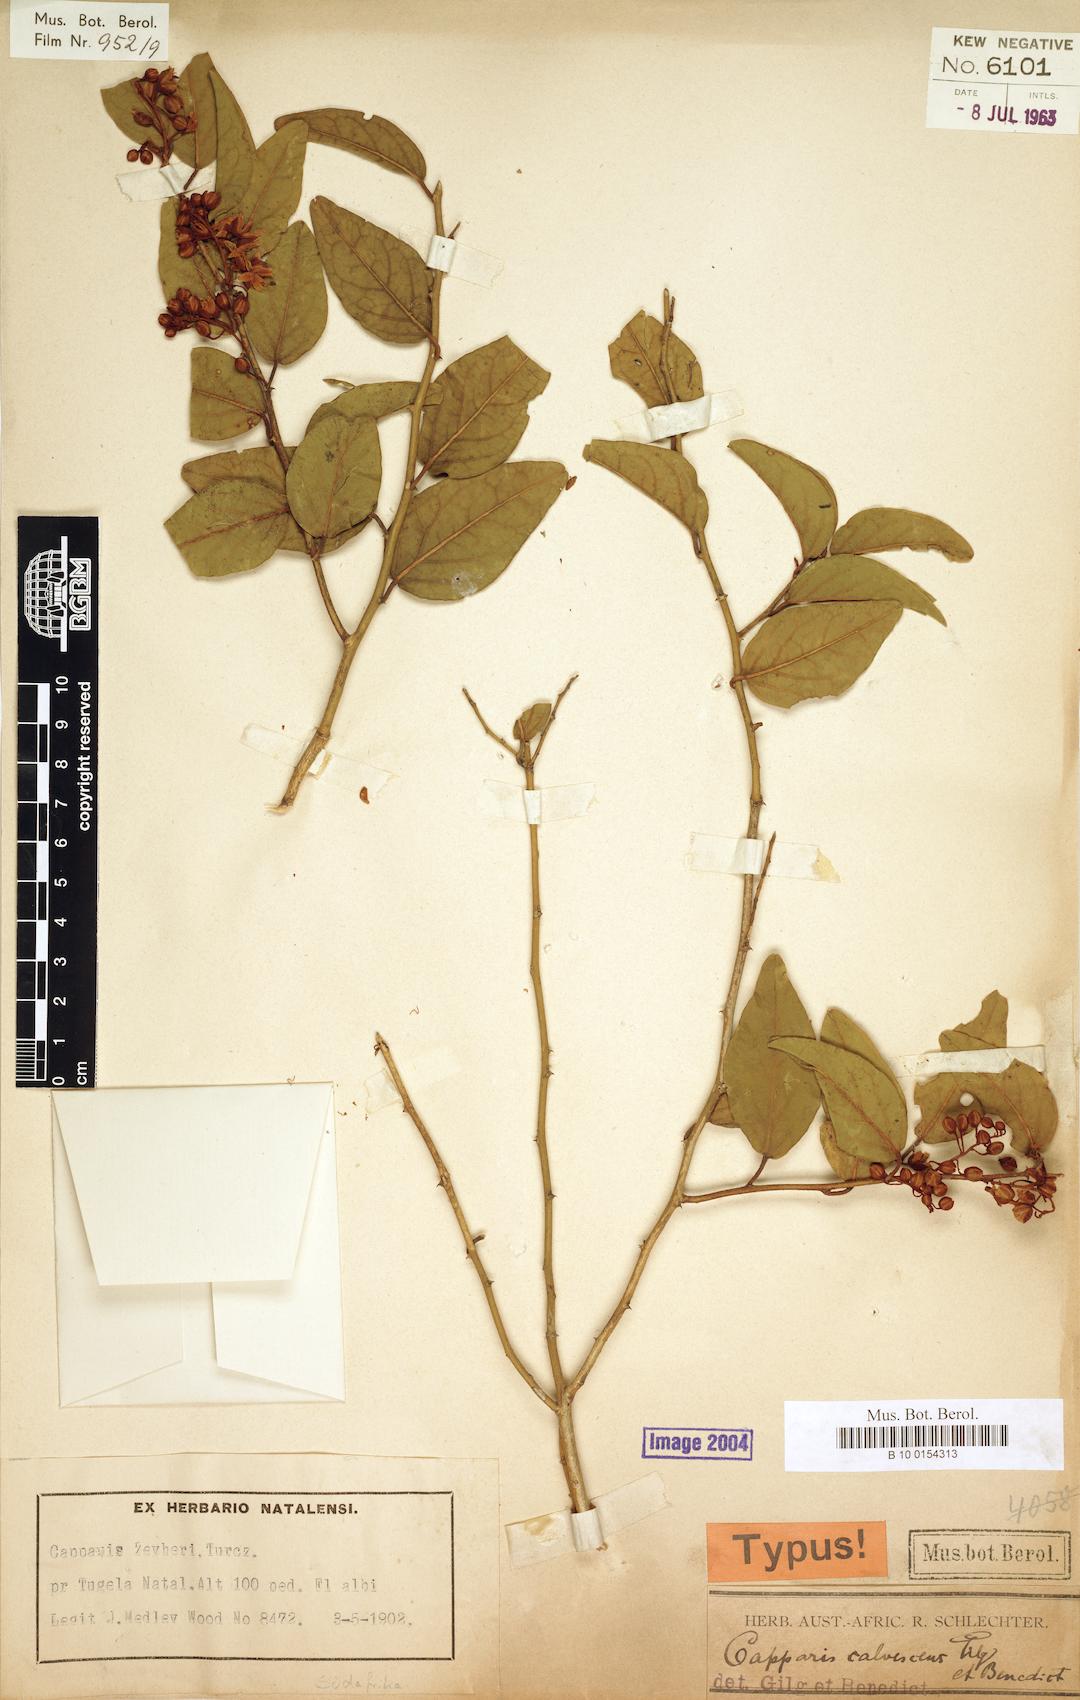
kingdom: Plantae
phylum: Tracheophyta
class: Magnoliopsida
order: Brassicales
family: Capparaceae
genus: Capparis
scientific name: Capparis fascicularis
